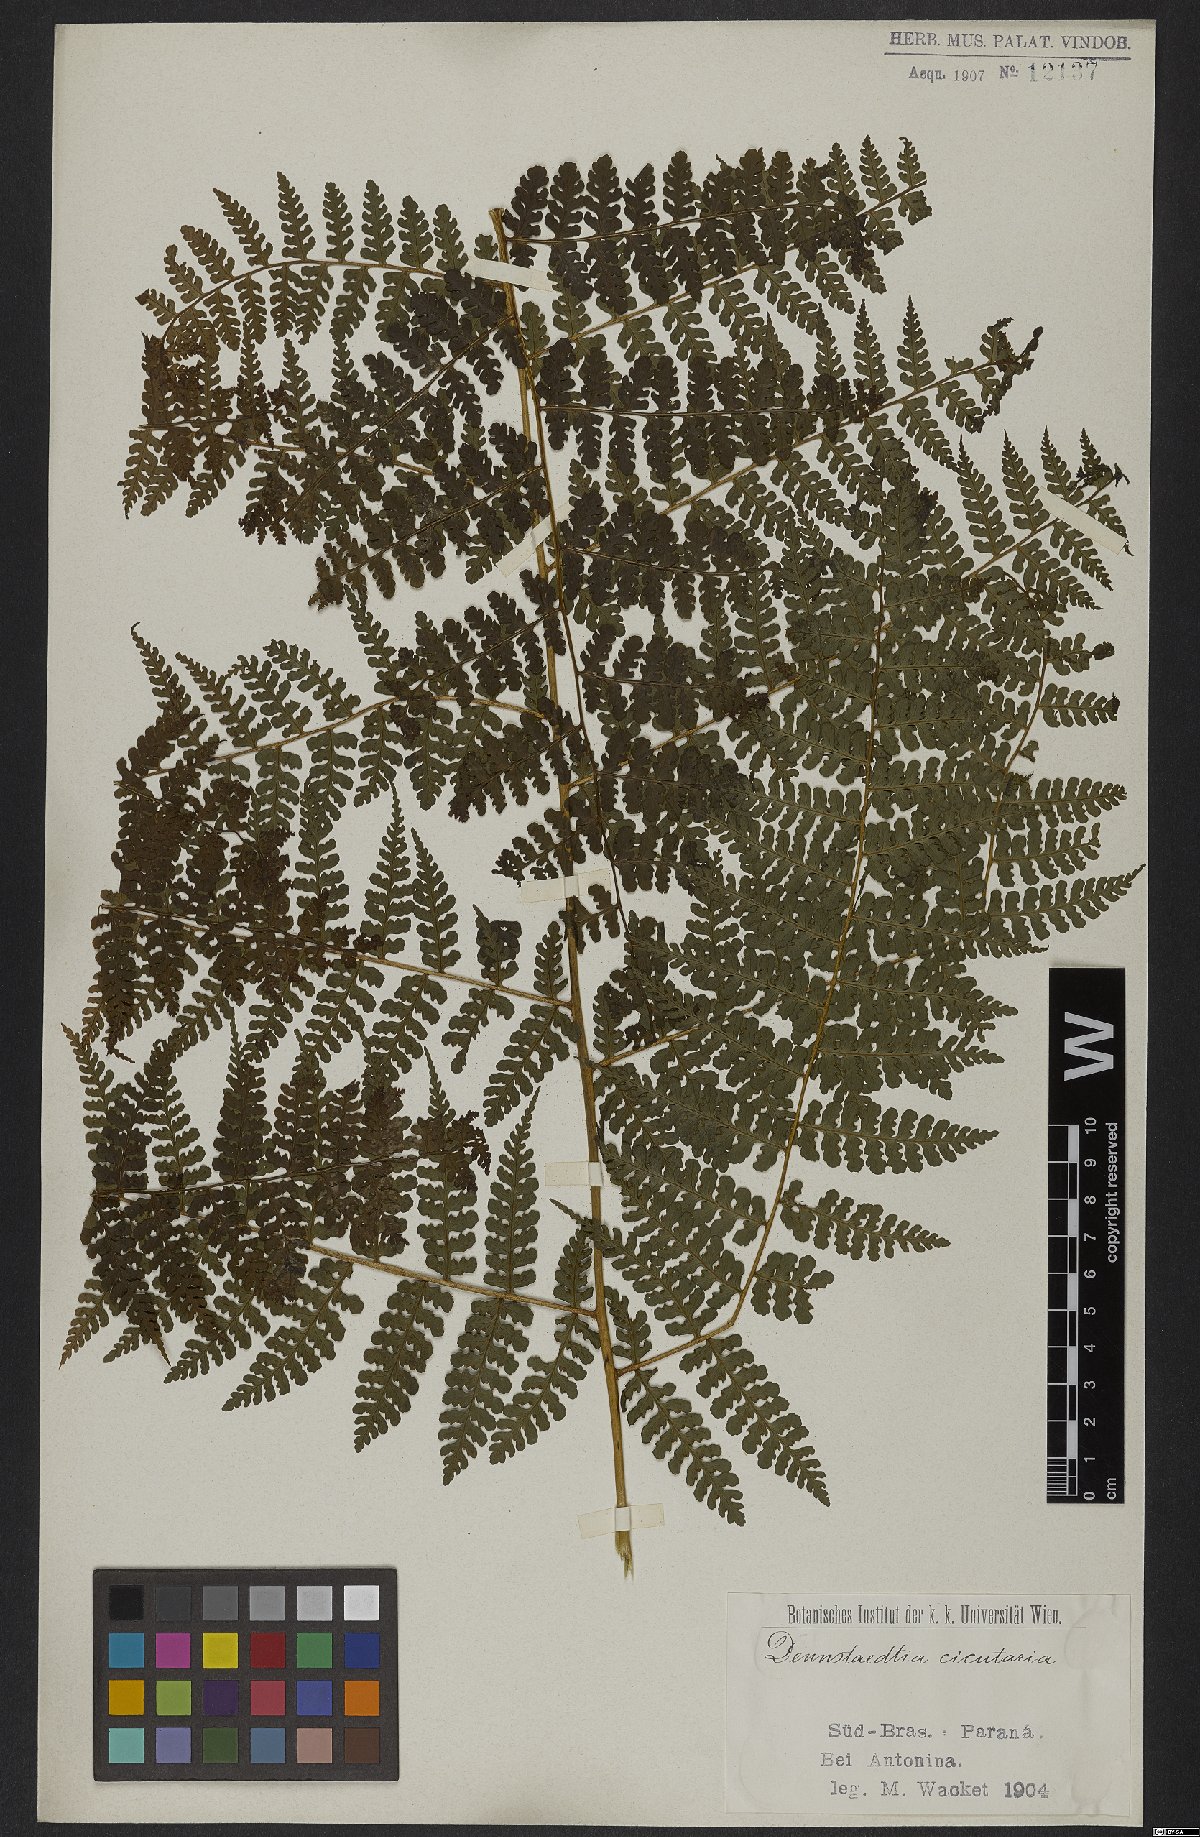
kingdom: Plantae
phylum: Tracheophyta
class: Polypodiopsida
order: Polypodiales
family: Dennstaedtiaceae
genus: Dennstaedtia
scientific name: Dennstaedtia cicutaria
